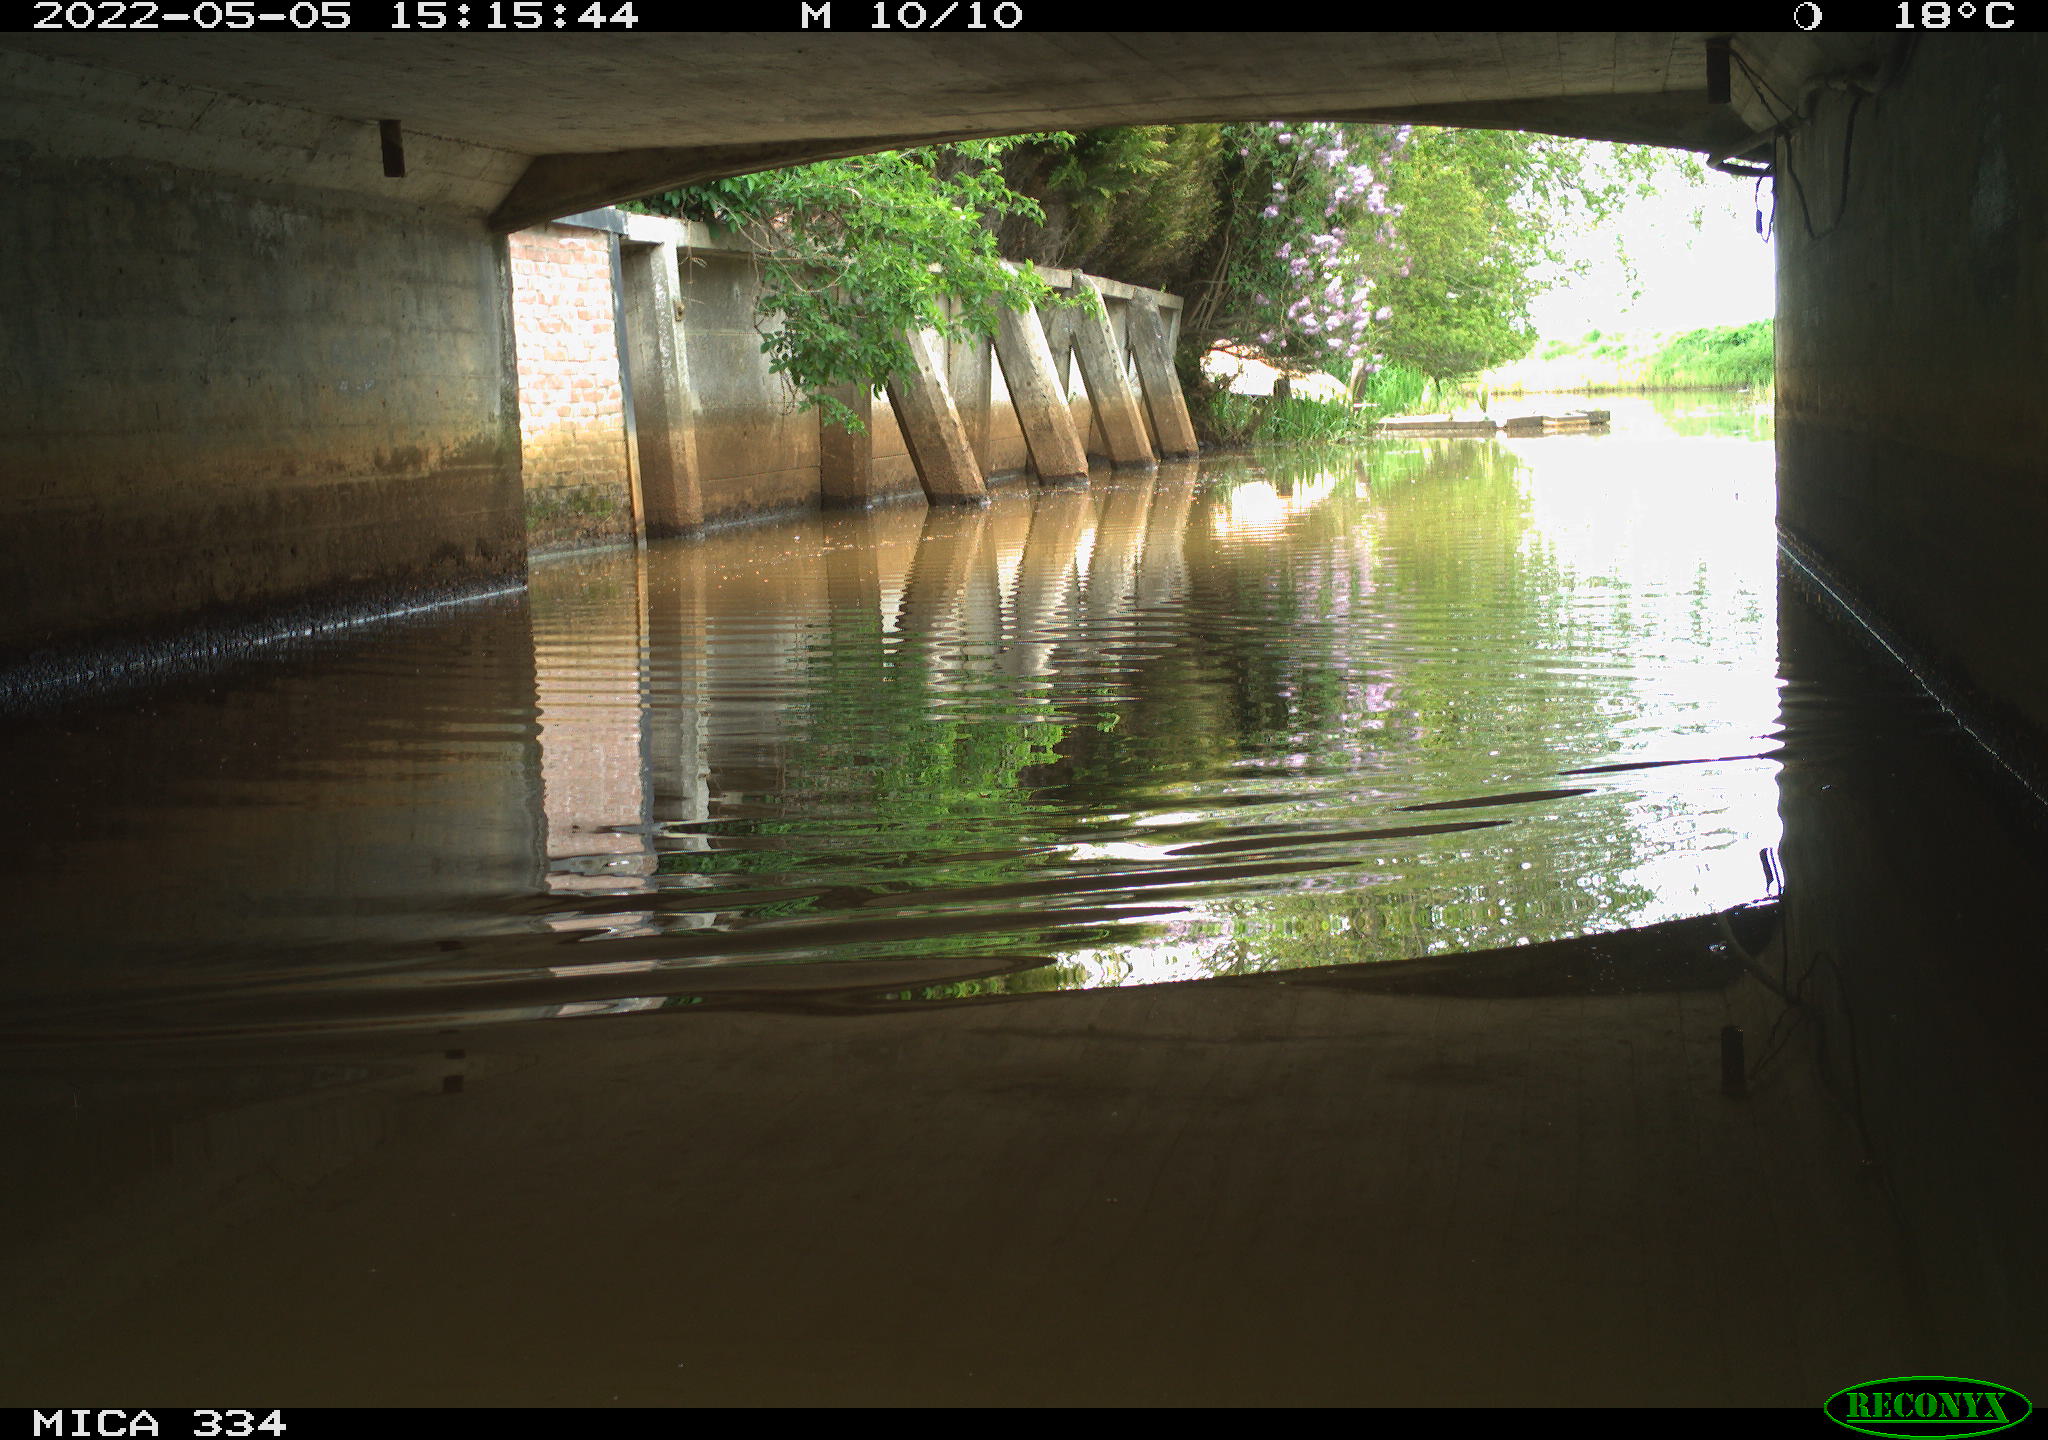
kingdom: Animalia
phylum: Chordata
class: Aves
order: Anseriformes
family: Anatidae
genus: Anas
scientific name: Anas platyrhynchos
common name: Mallard
